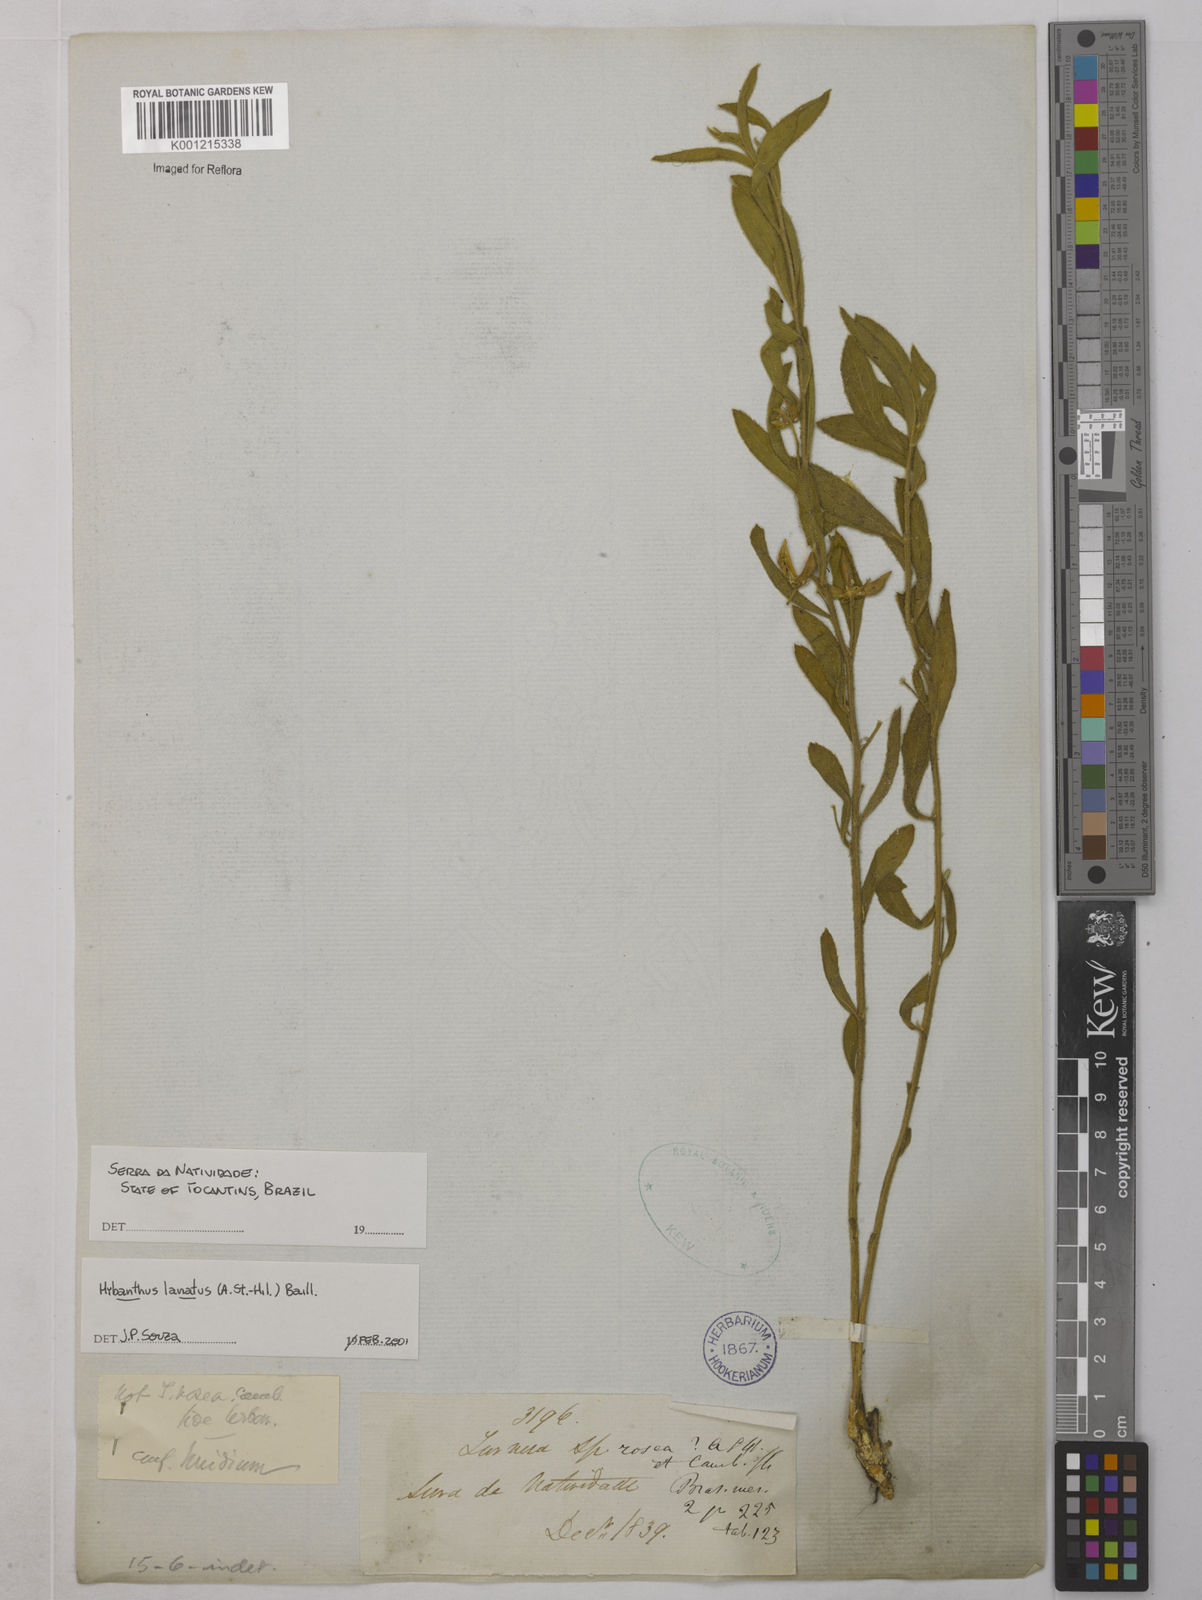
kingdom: Plantae
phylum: Tracheophyta
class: Magnoliopsida
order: Malpighiales
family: Violaceae
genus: Pombalia
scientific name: Pombalia lanata
